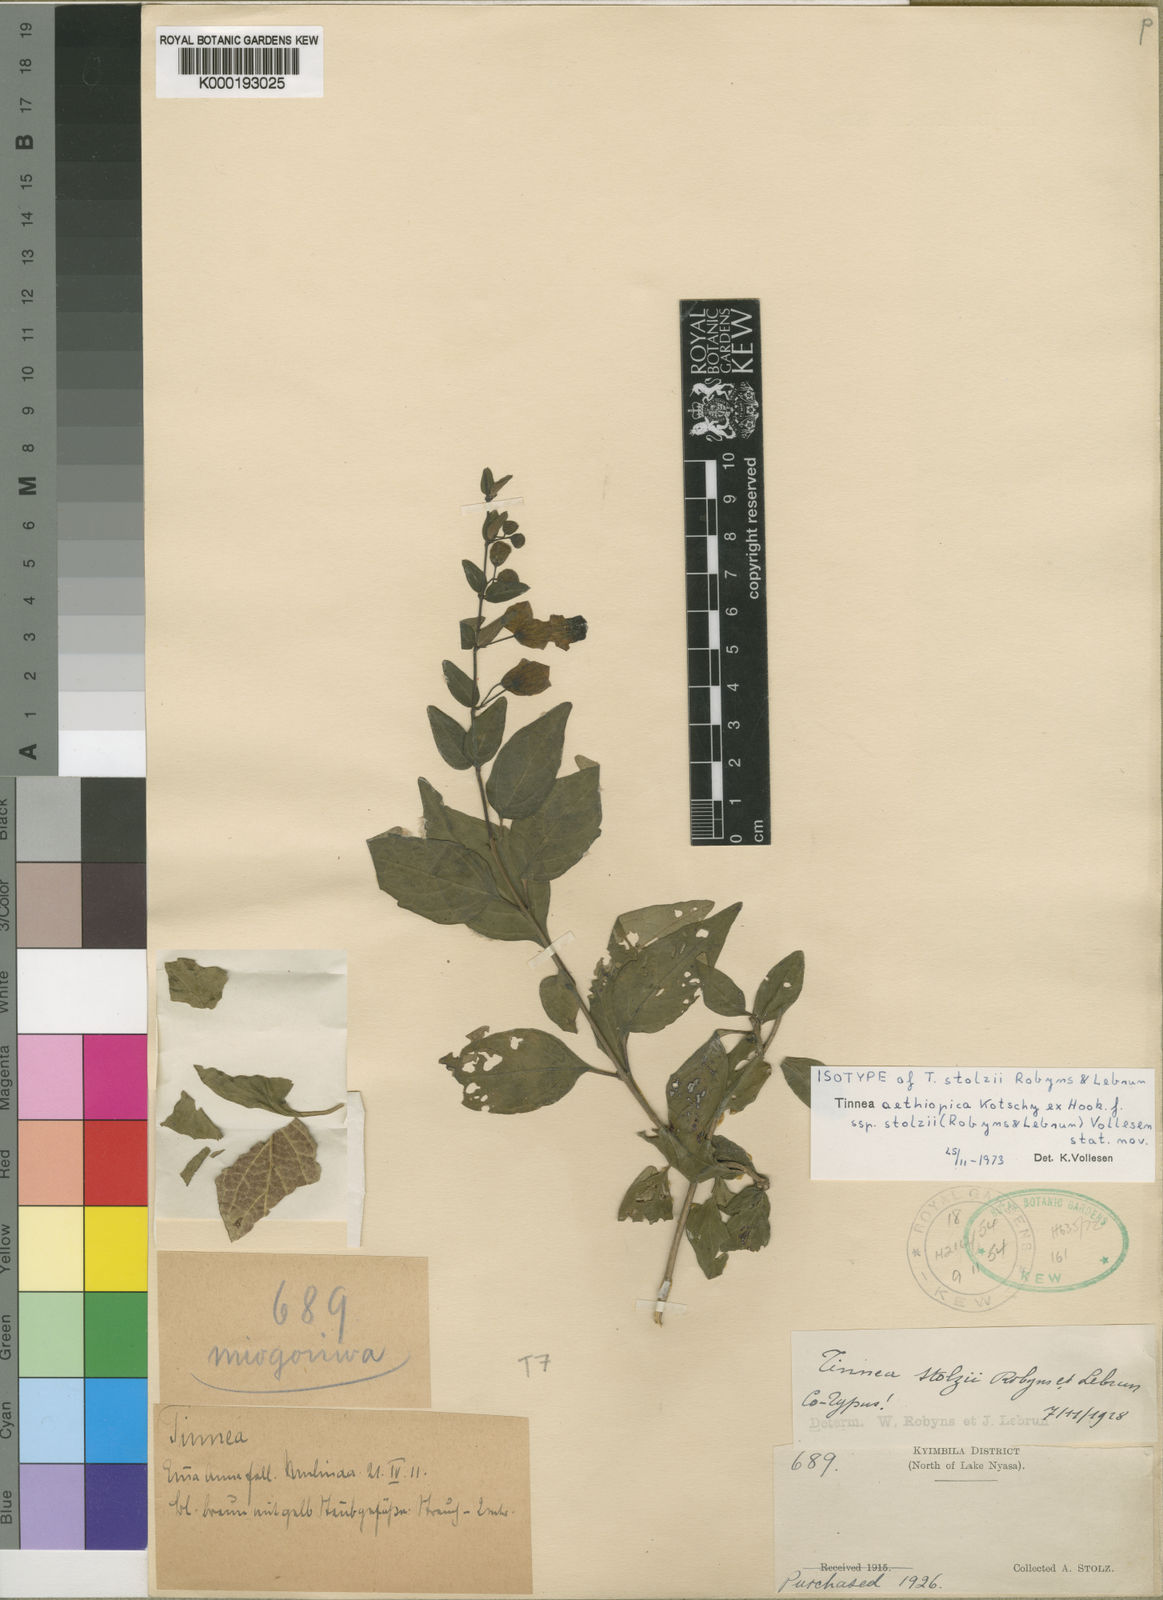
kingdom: Plantae
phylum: Tracheophyta
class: Magnoliopsida
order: Lamiales
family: Lamiaceae
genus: Tinnea
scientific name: Tinnea aethiopica
